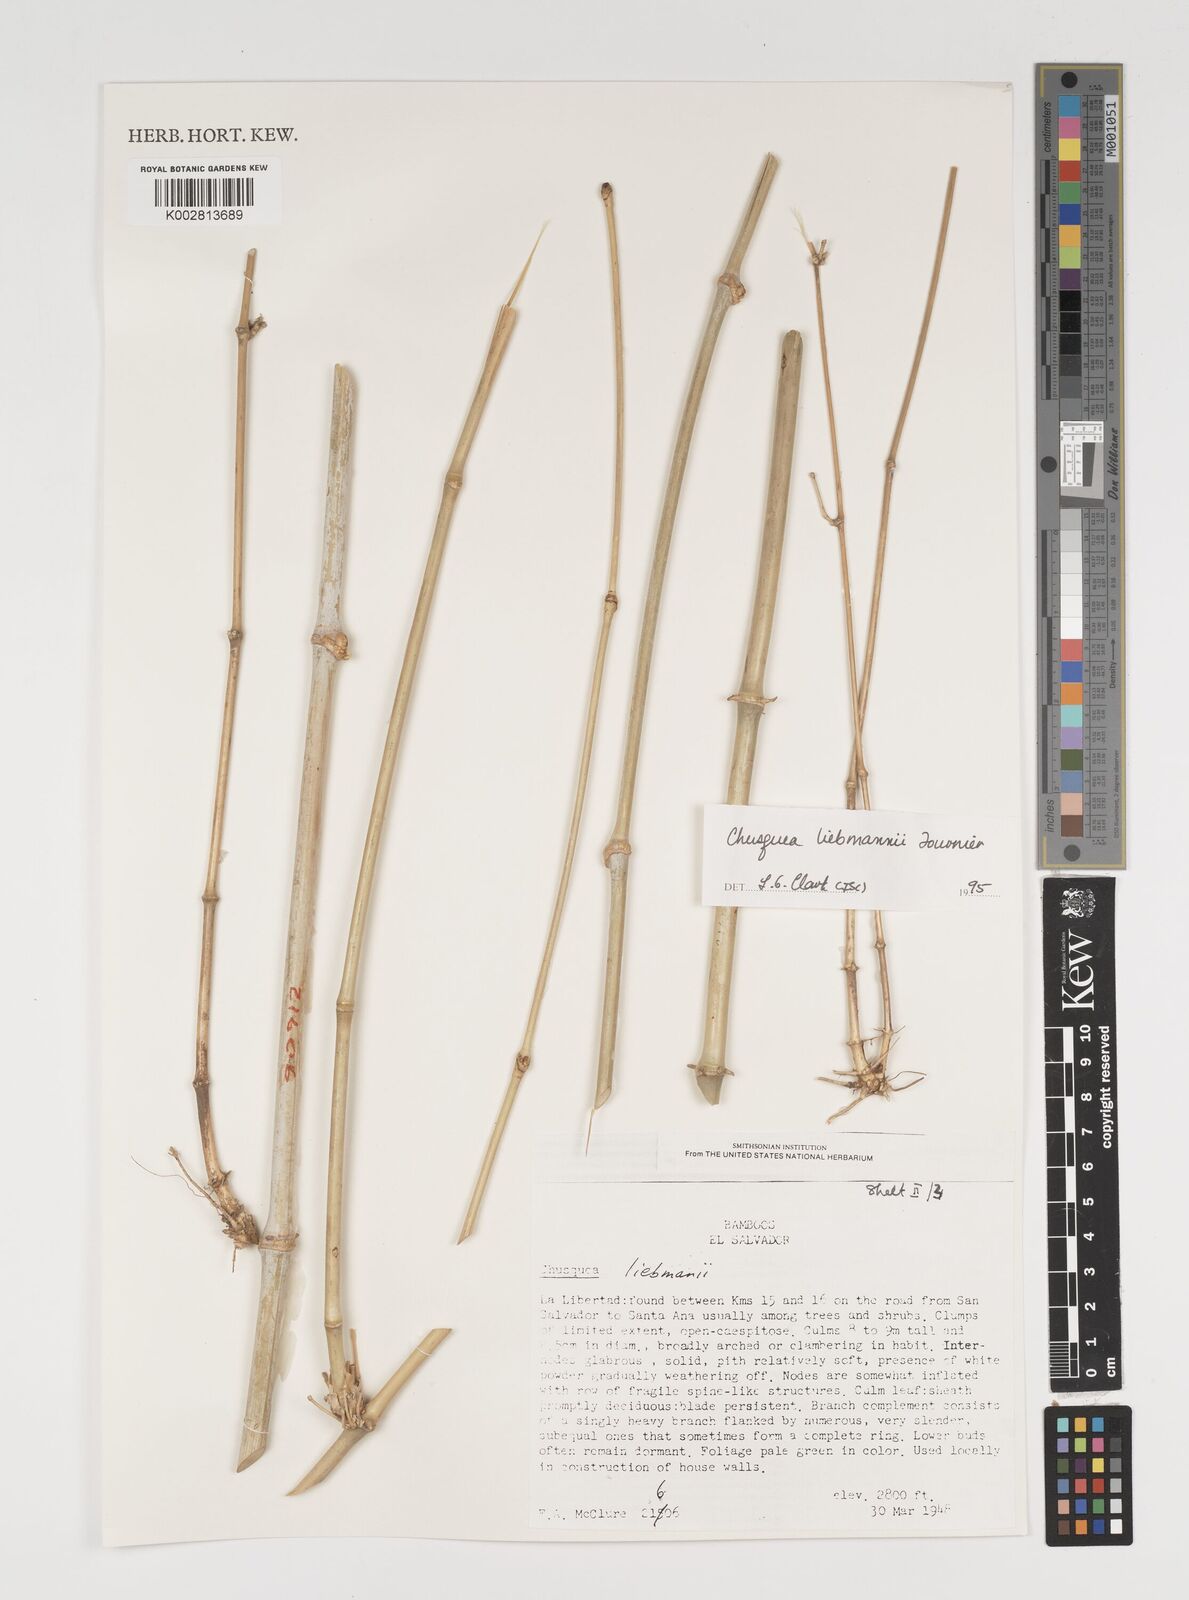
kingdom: Plantae
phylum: Tracheophyta
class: Liliopsida
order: Poales
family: Poaceae
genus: Chusquea
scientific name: Chusquea liebmannii
